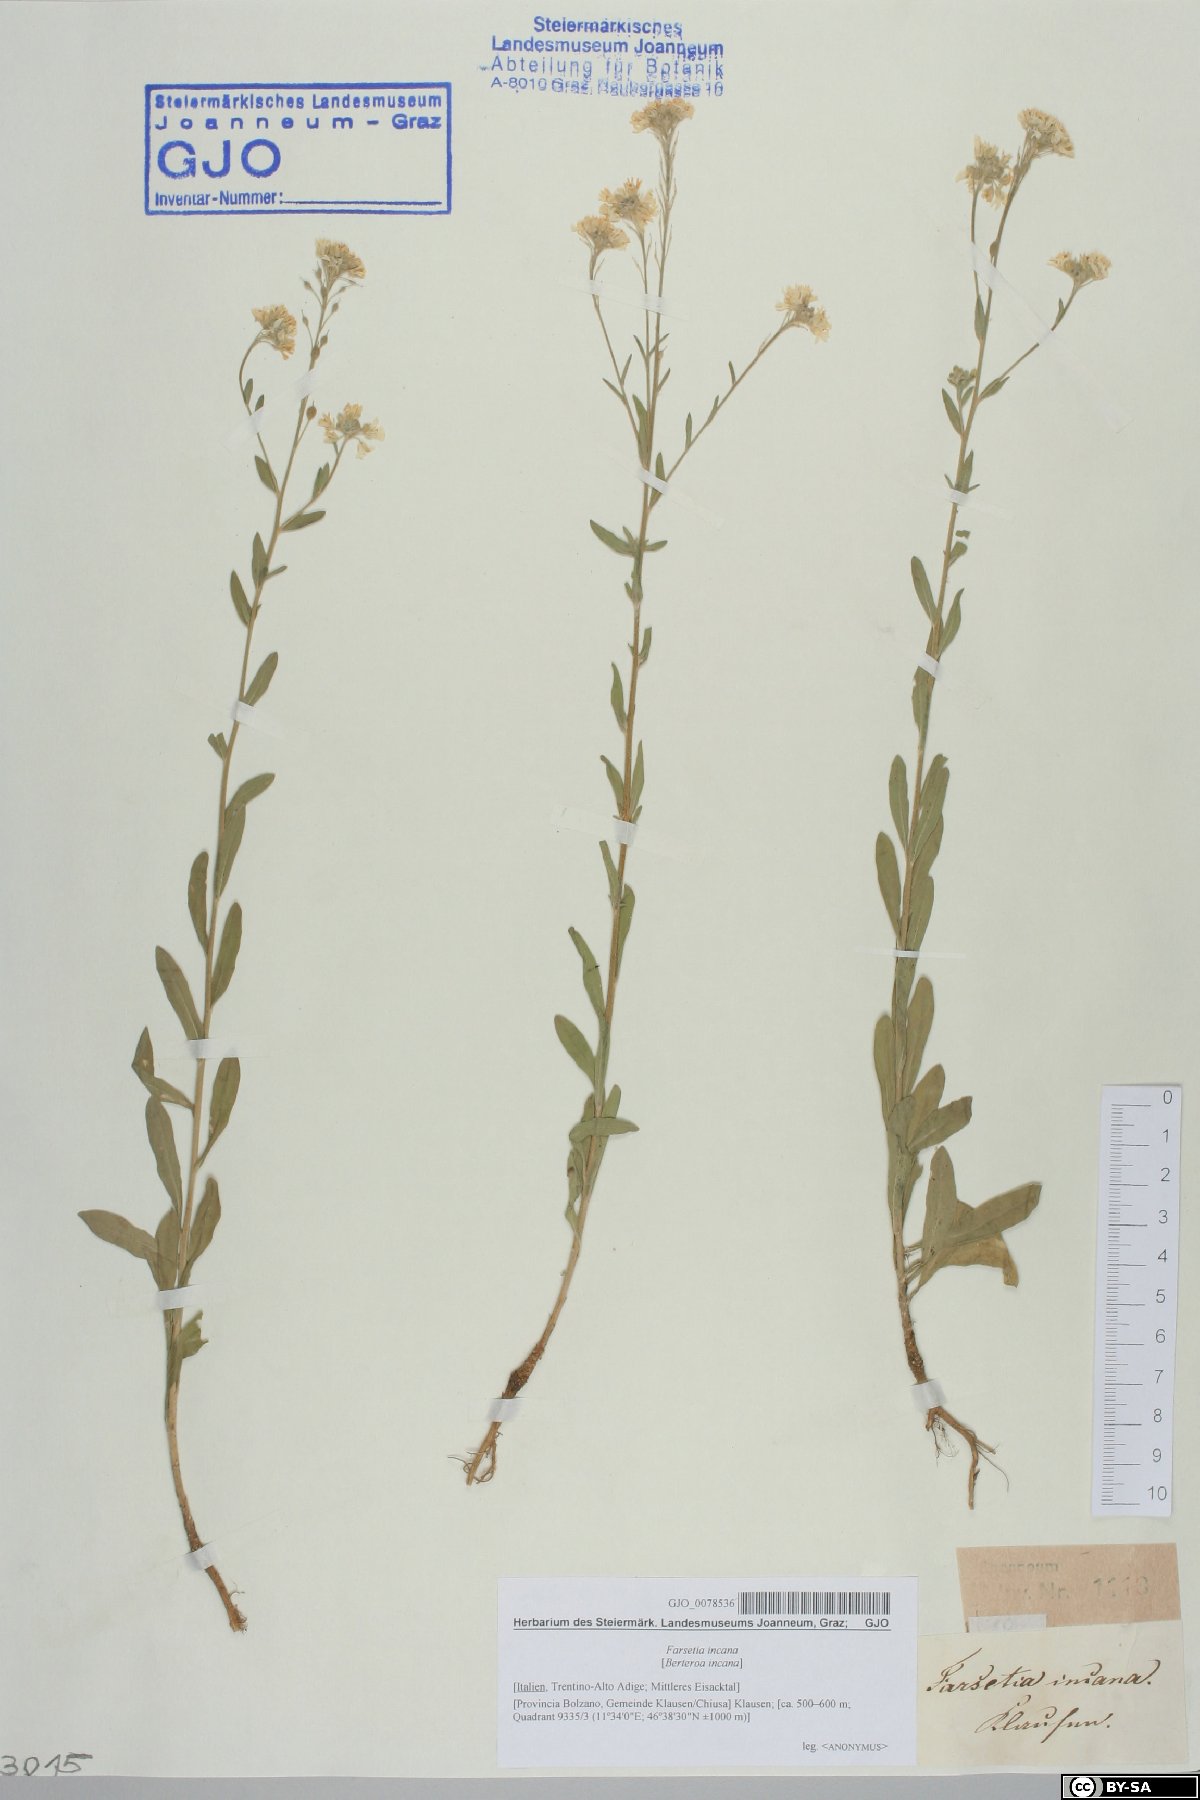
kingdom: Plantae
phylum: Tracheophyta
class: Magnoliopsida
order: Brassicales
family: Brassicaceae
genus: Berteroa
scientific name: Berteroa incana
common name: Hoary alison
